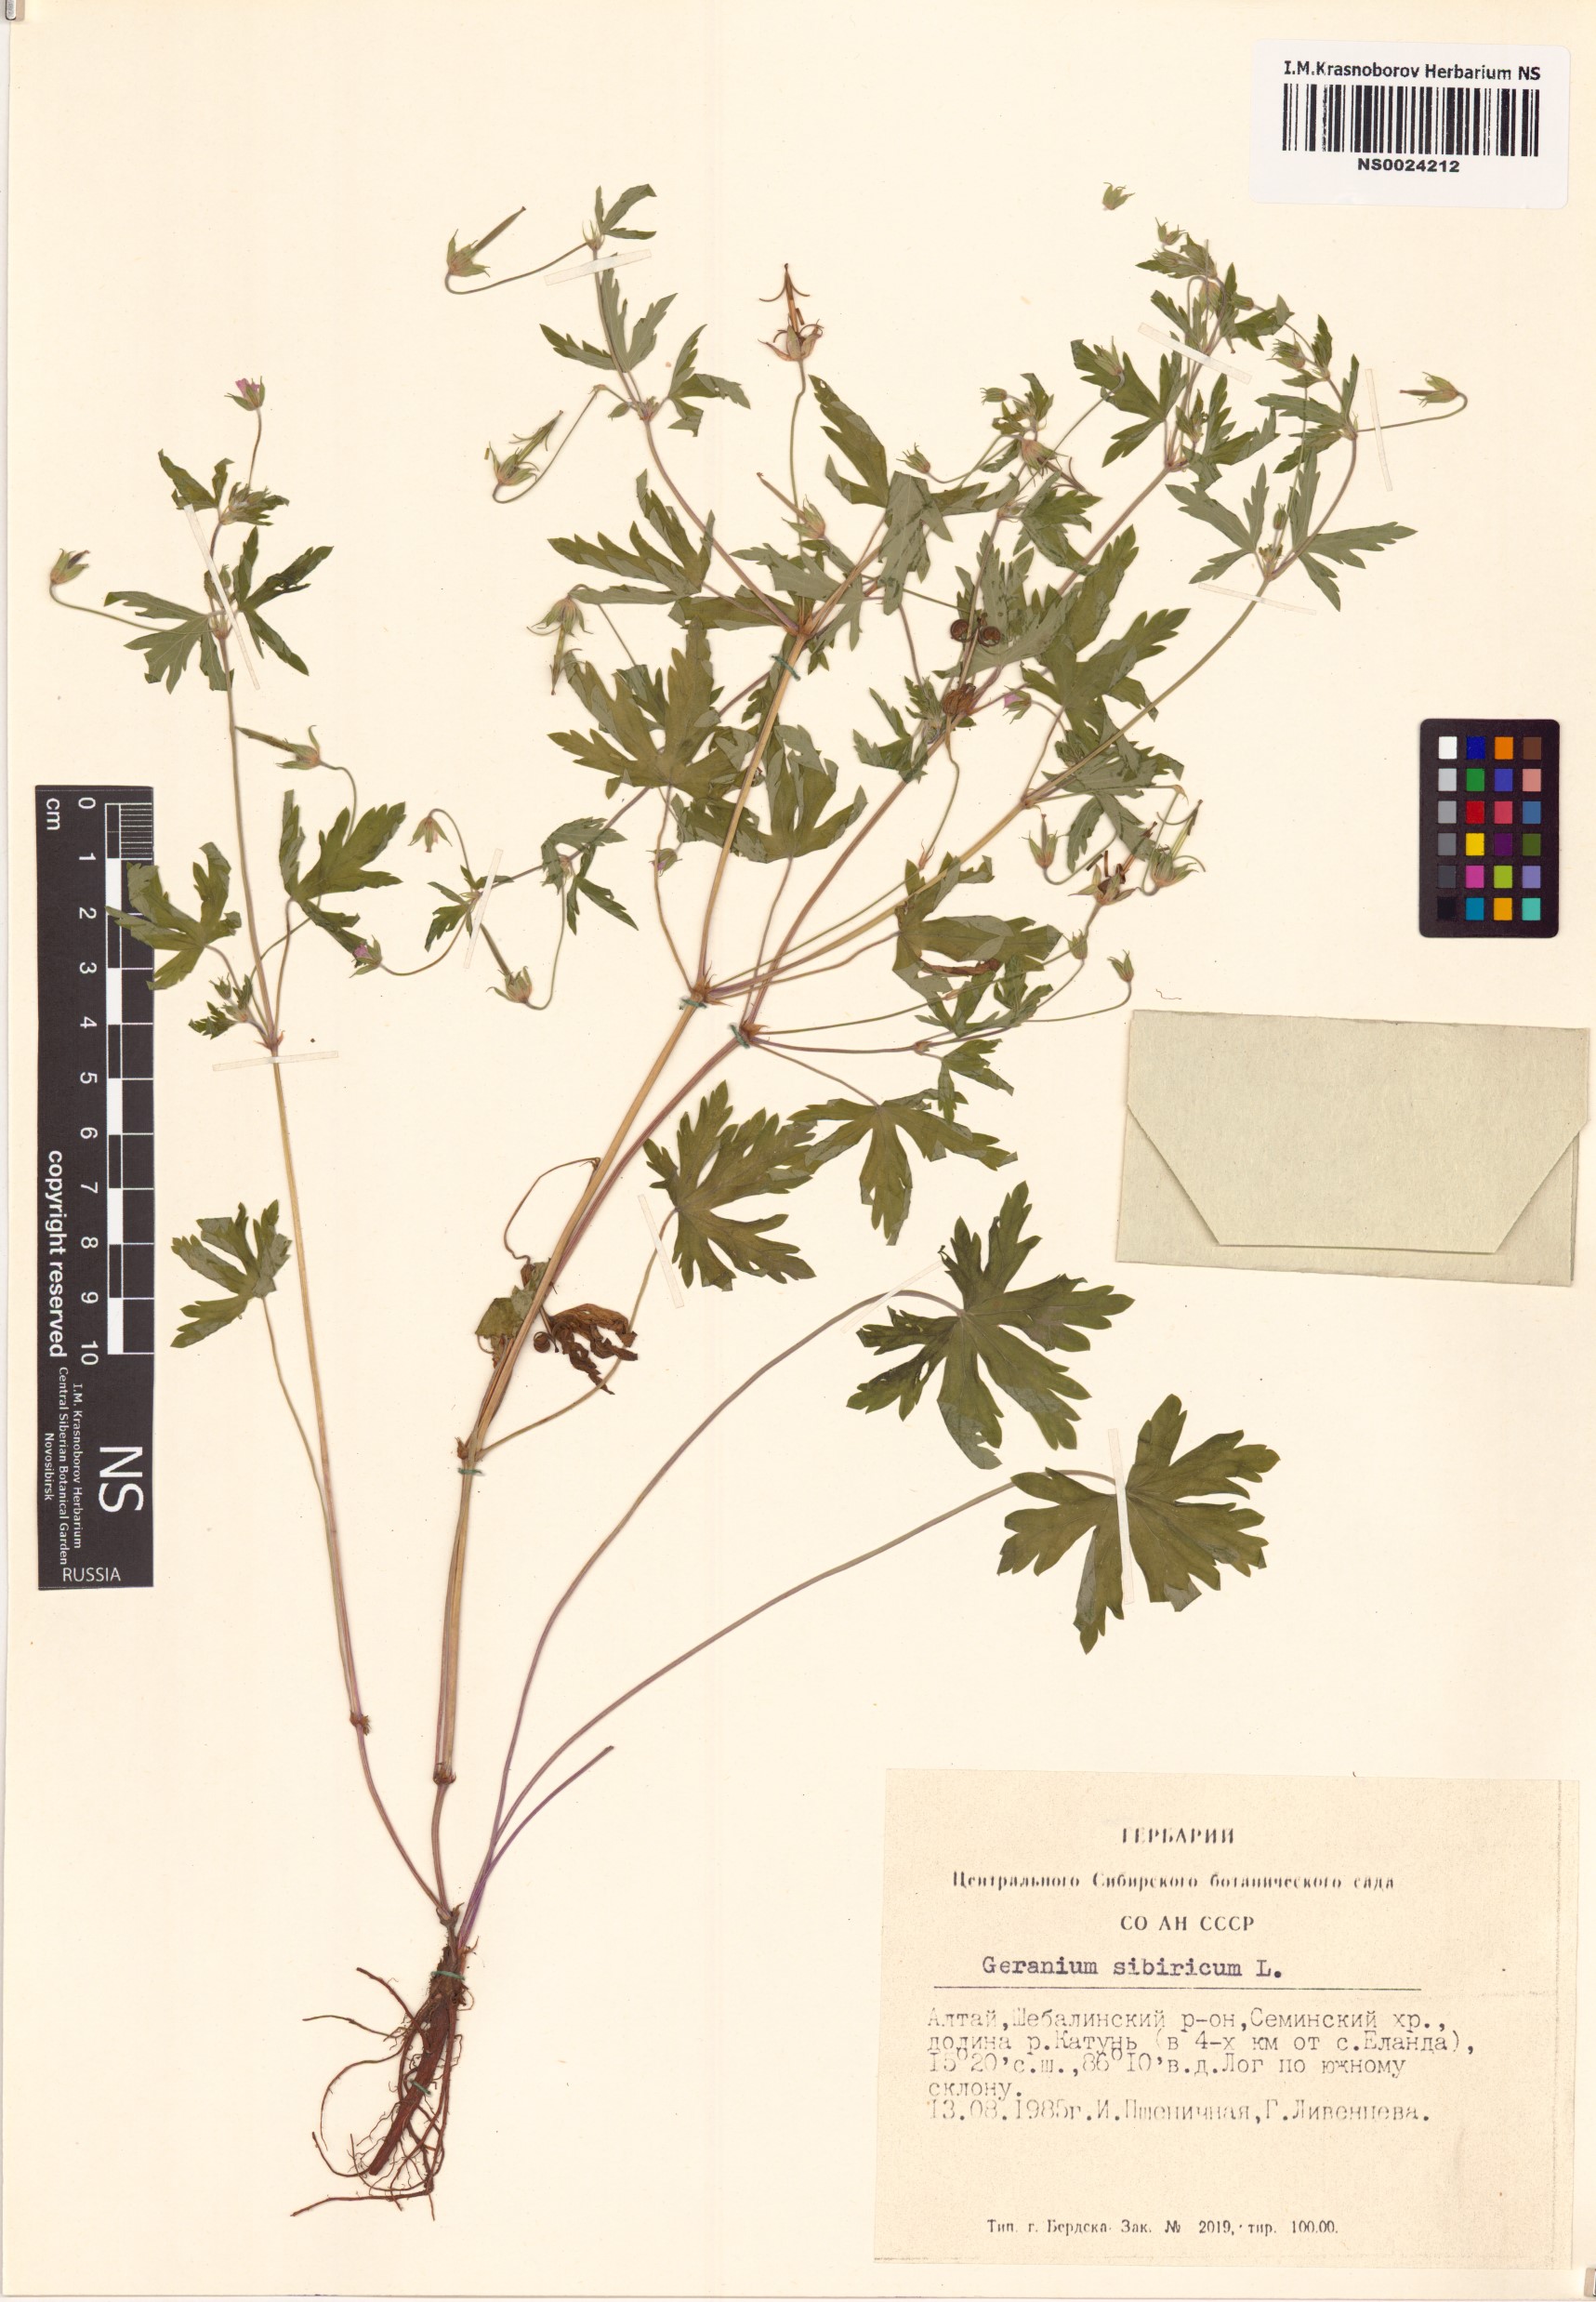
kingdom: Plantae
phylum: Tracheophyta
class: Magnoliopsida
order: Geraniales
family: Geraniaceae
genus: Geranium
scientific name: Geranium sibiricum
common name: Siberian crane's-bill
